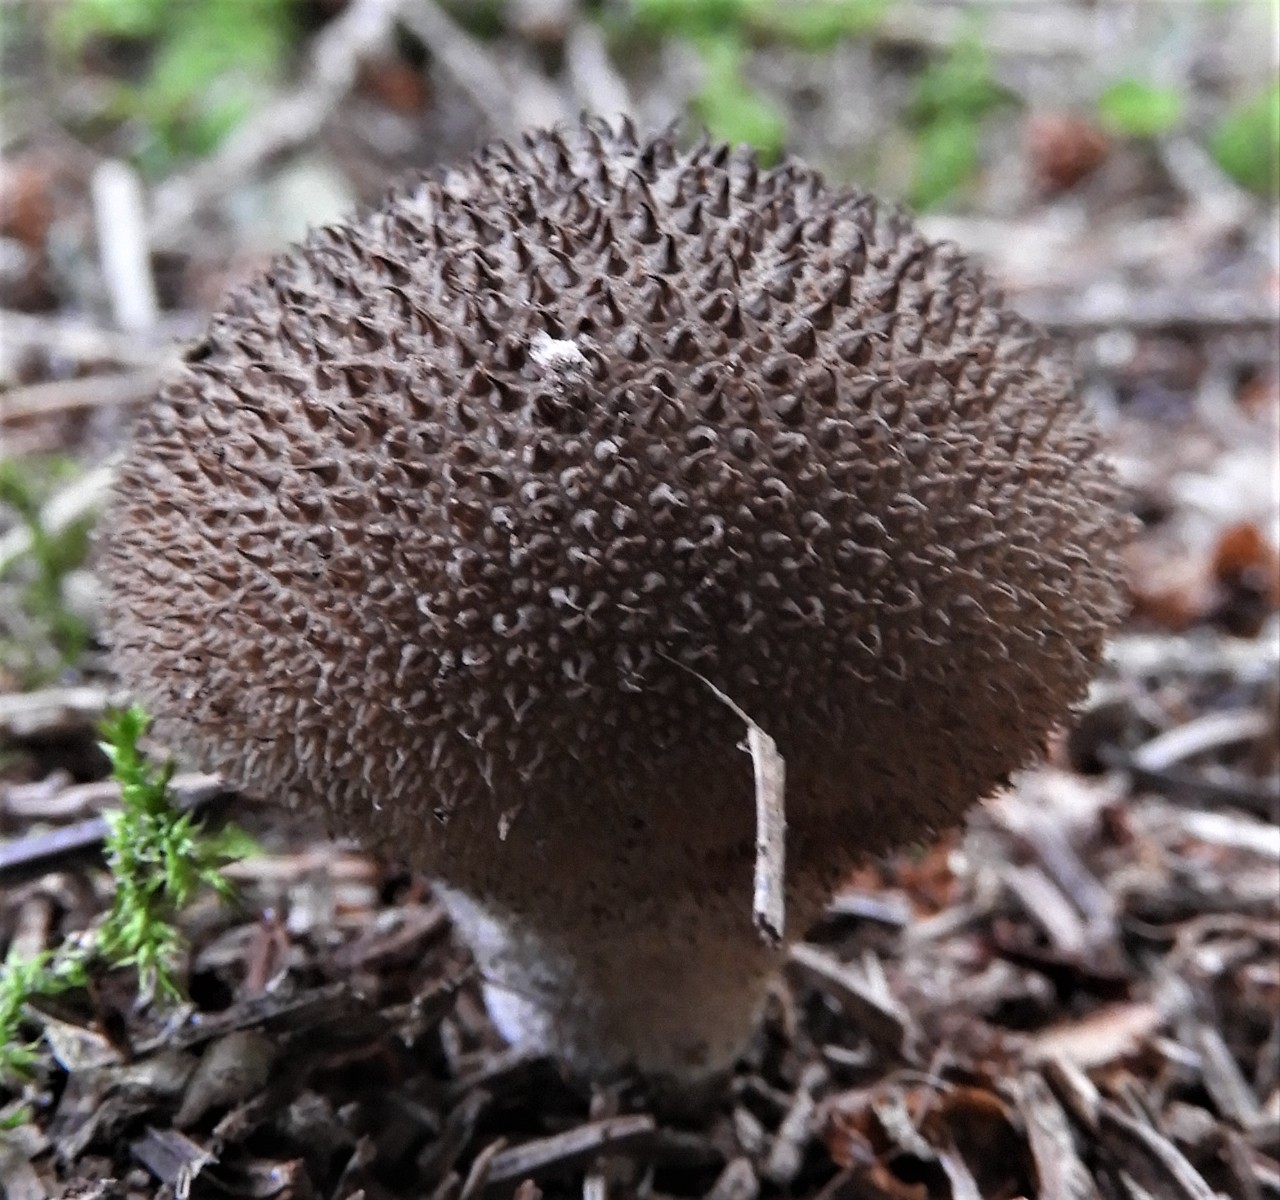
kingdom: Fungi
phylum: Basidiomycota
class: Agaricomycetes
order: Agaricales
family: Lycoperdaceae
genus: Lycoperdon
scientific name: Lycoperdon nigrescens
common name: sortagtig støvbold
